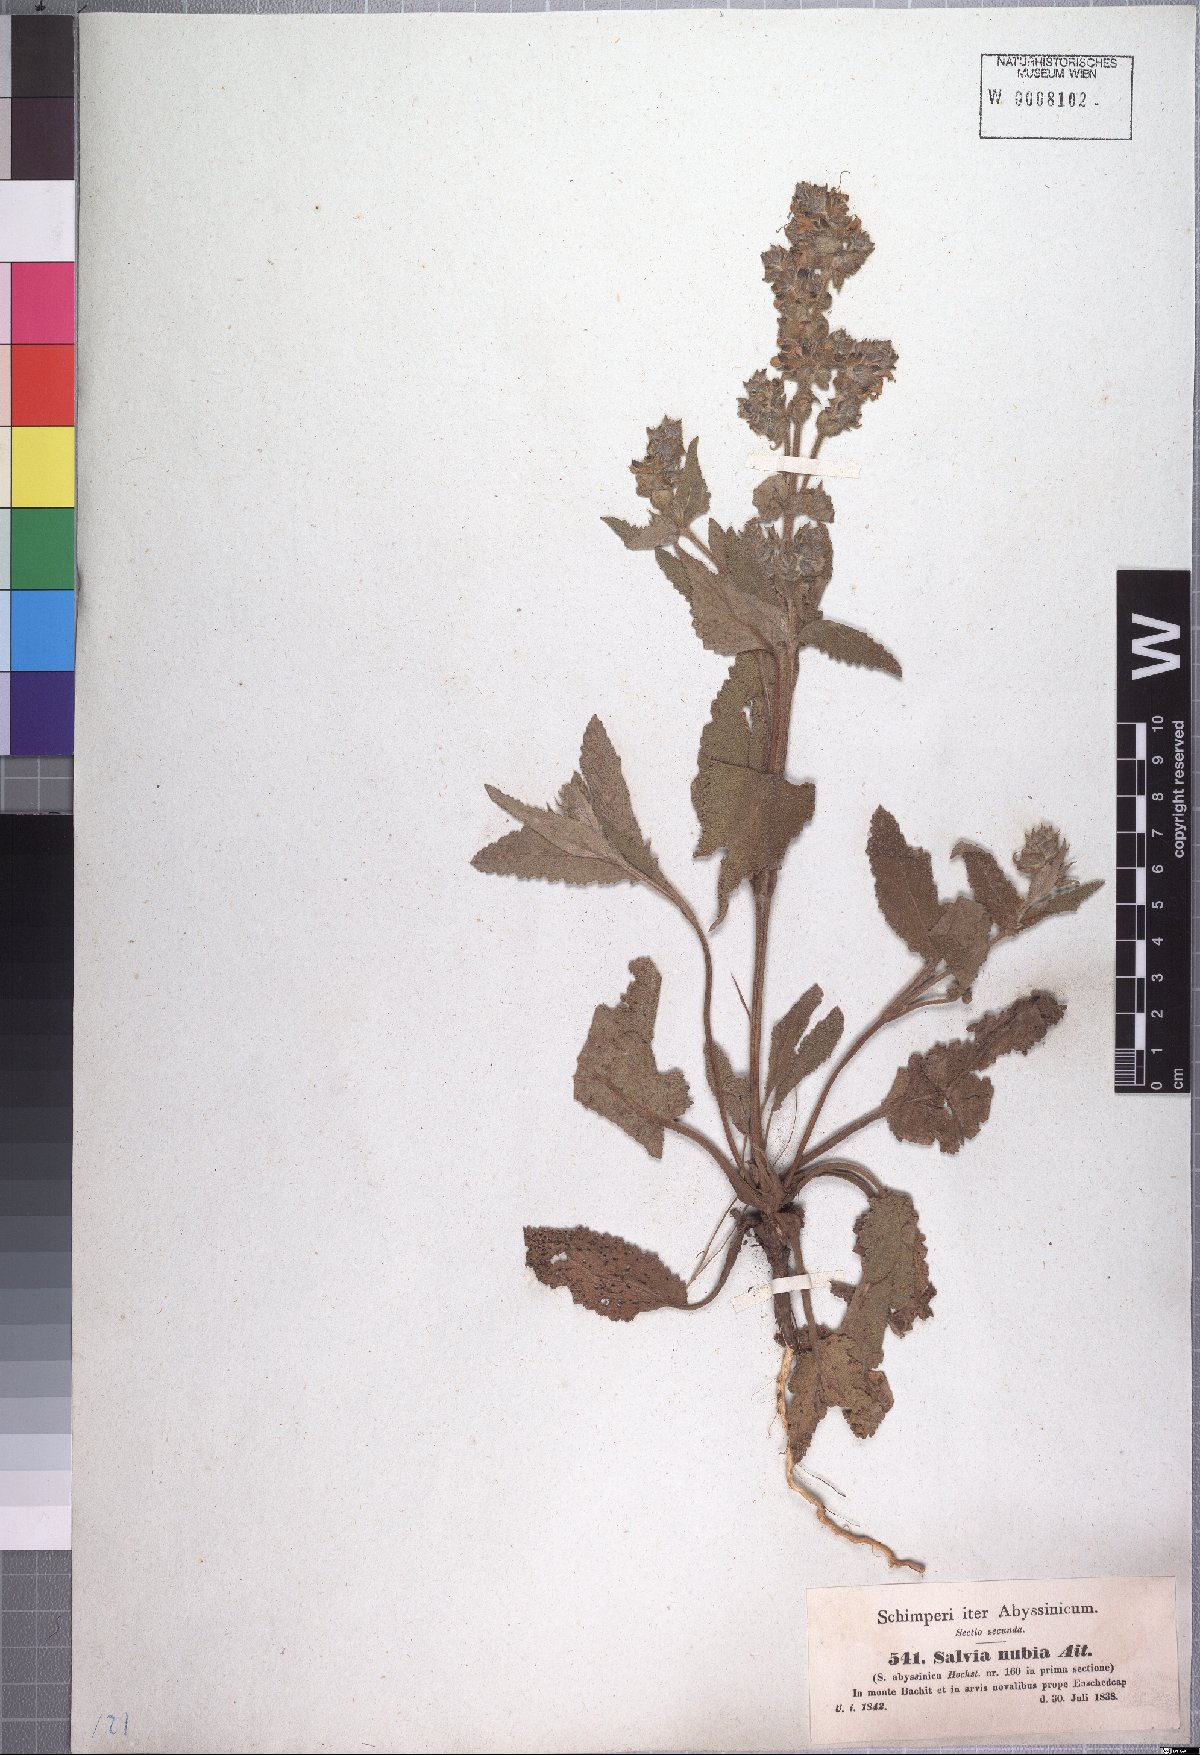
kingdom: Plantae
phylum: Tracheophyta
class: Magnoliopsida
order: Lamiales
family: Lamiaceae
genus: Salvia
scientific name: Salvia merjamie
